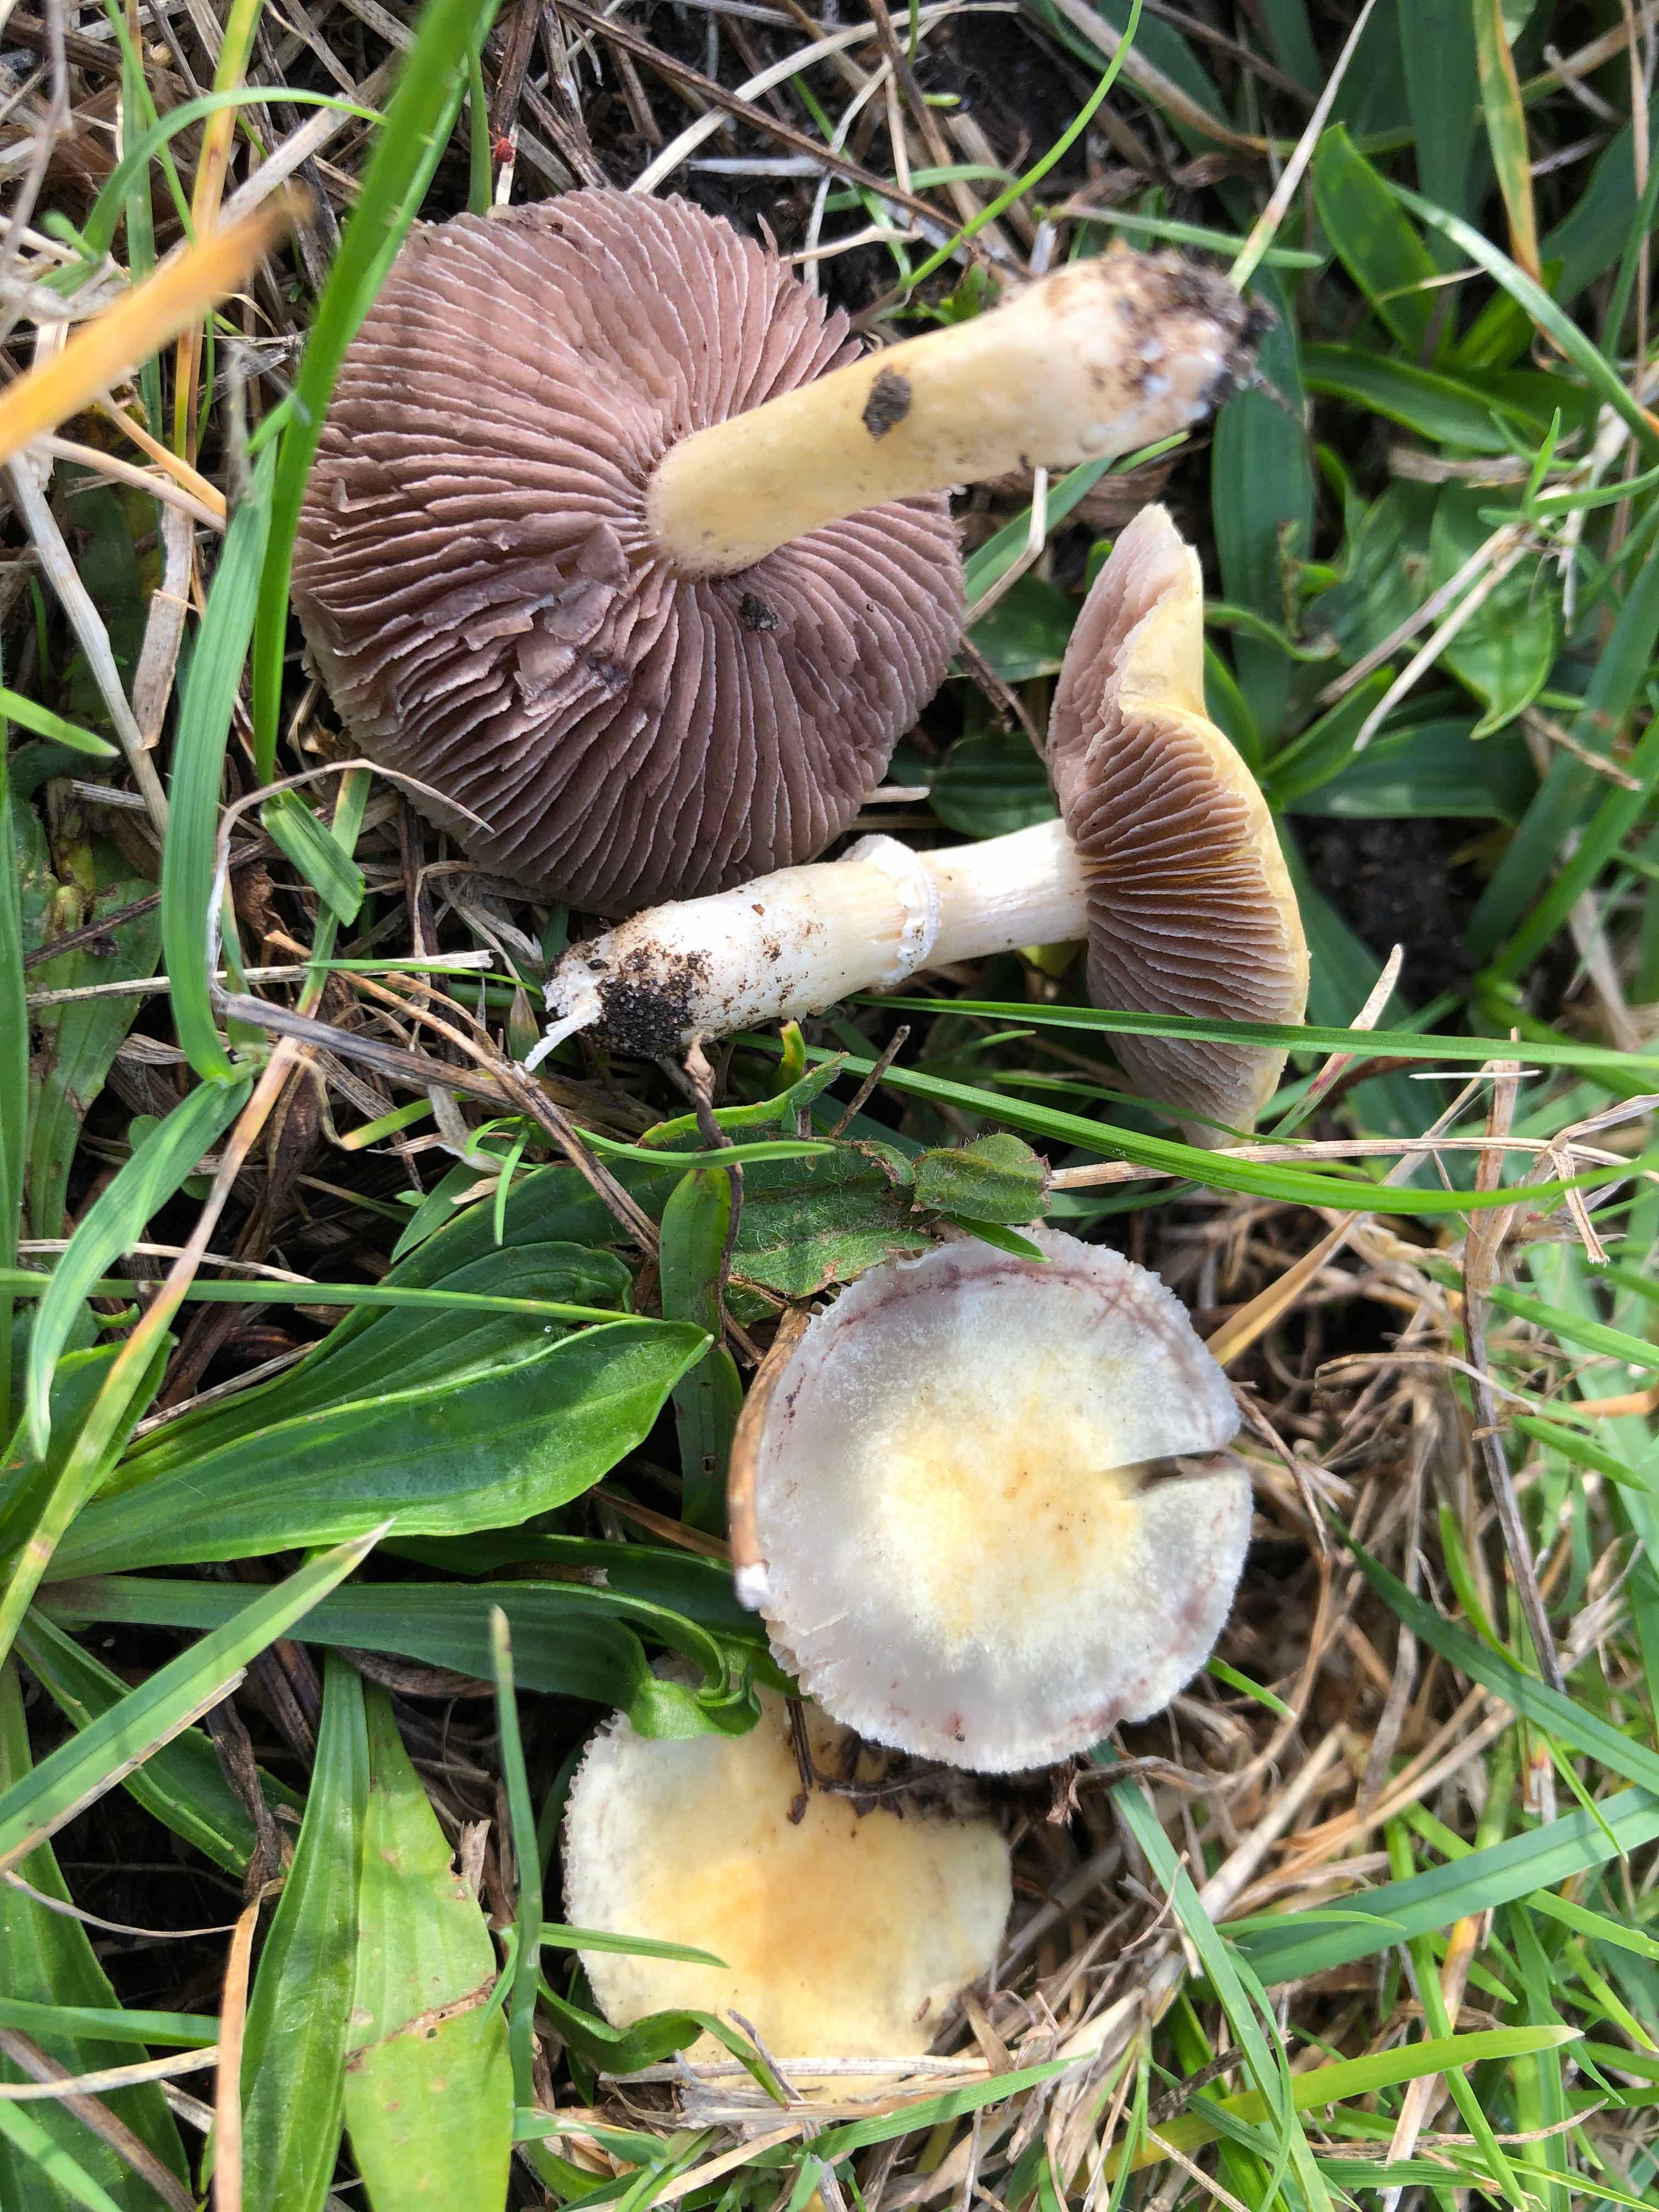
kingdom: Fungi
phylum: Basidiomycota
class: Agaricomycetes
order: Agaricales
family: Hymenogastraceae
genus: Psilocybe
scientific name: Psilocybe coronilla
